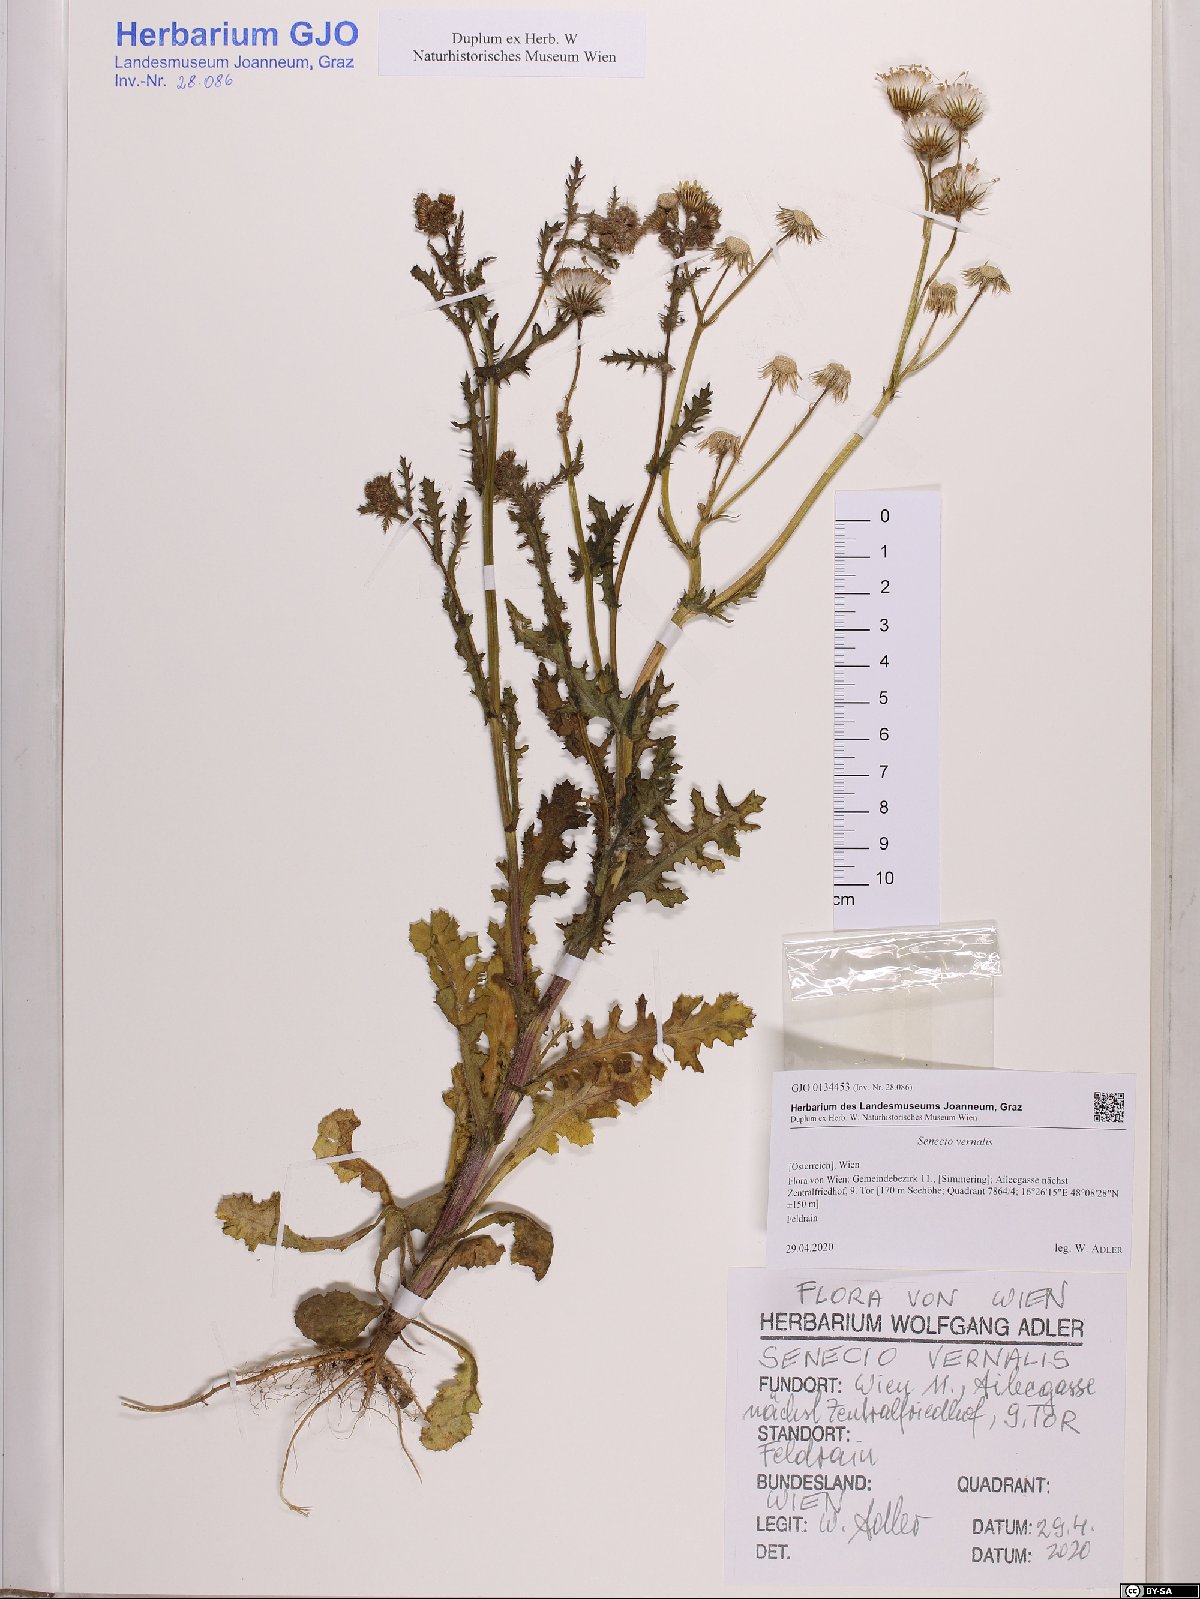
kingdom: Plantae
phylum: Tracheophyta
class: Magnoliopsida
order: Asterales
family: Asteraceae
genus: Senecio
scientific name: Senecio vernalis
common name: Eastern groundsel
